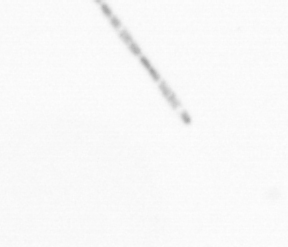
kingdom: Chromista
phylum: Ochrophyta
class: Bacillariophyceae
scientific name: Bacillariophyceae
